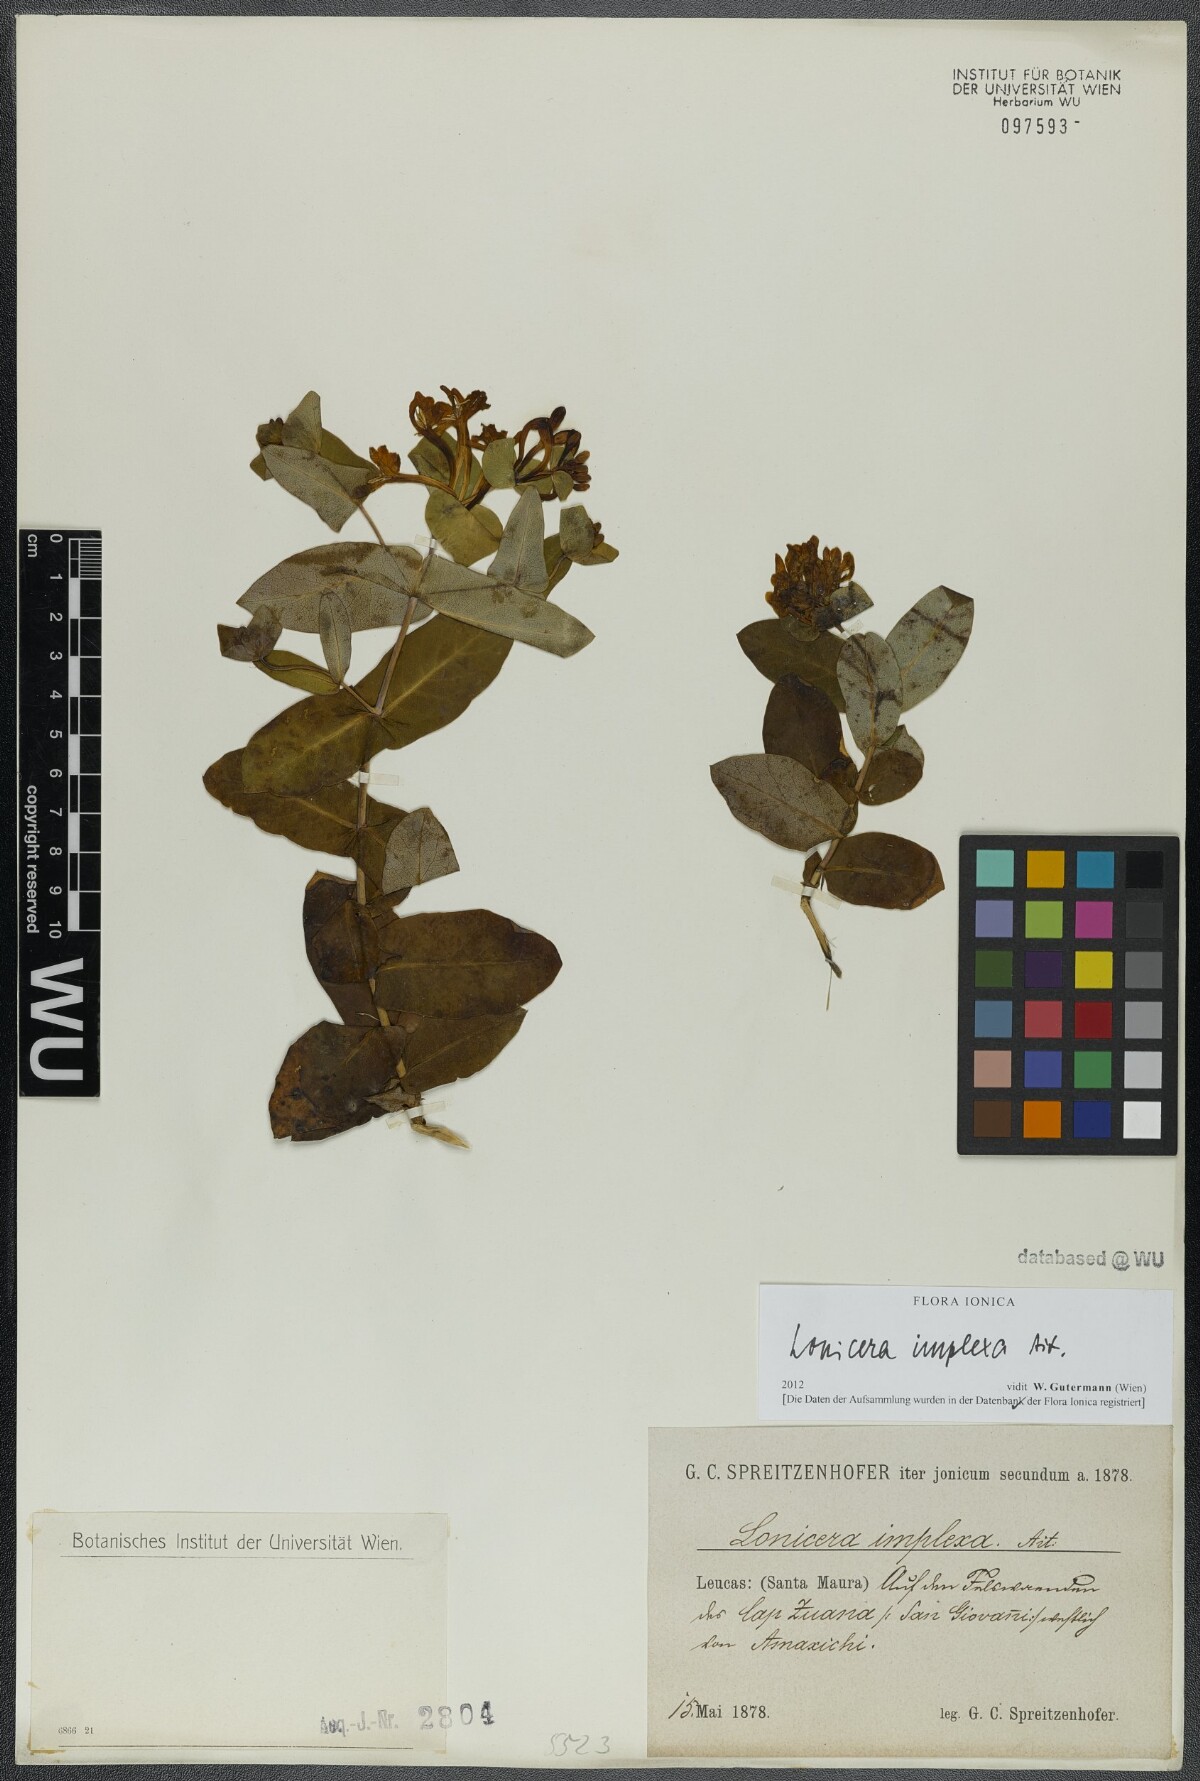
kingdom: Plantae
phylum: Tracheophyta
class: Magnoliopsida
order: Dipsacales
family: Caprifoliaceae
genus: Lonicera
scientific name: Lonicera implexa
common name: Minorca honeysuckle
